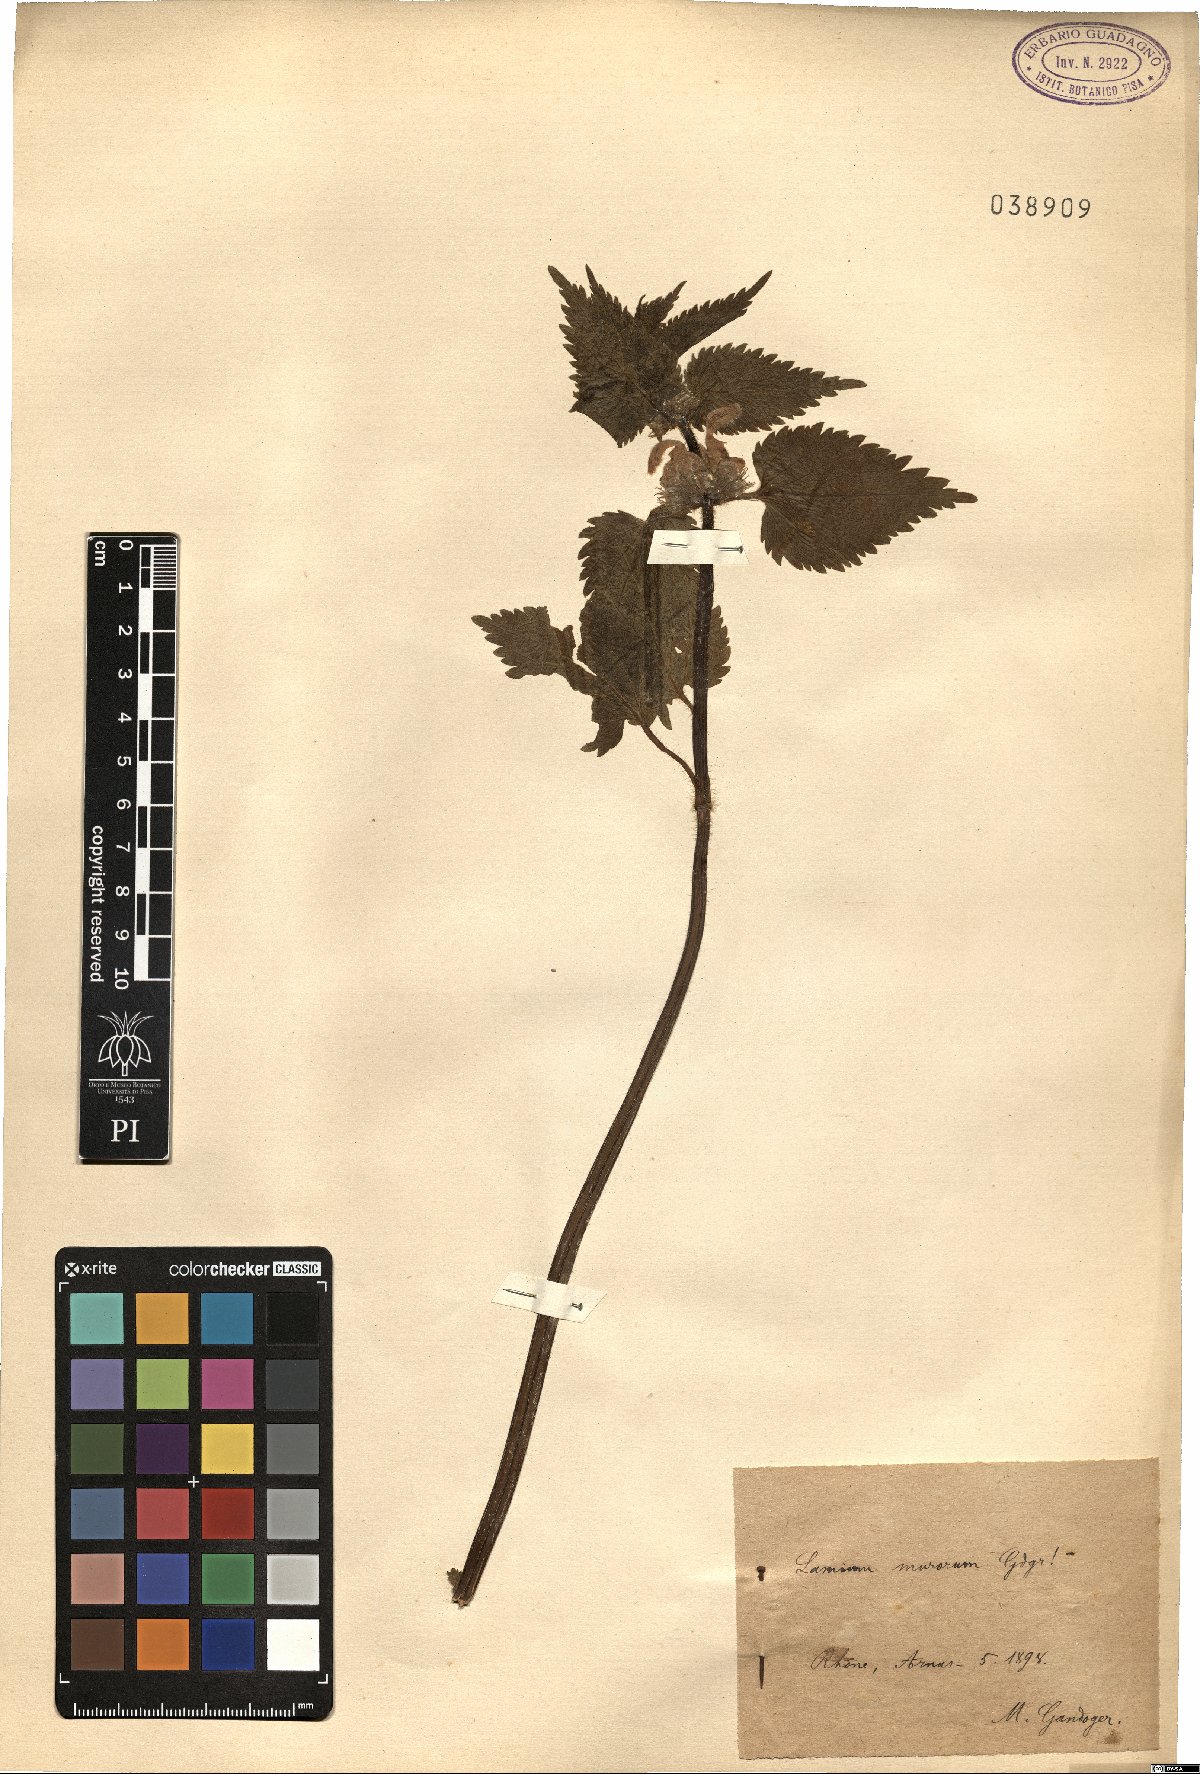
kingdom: Plantae
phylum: Tracheophyta
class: Magnoliopsida
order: Lamiales
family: Lamiaceae
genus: Lamium
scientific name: Lamium
